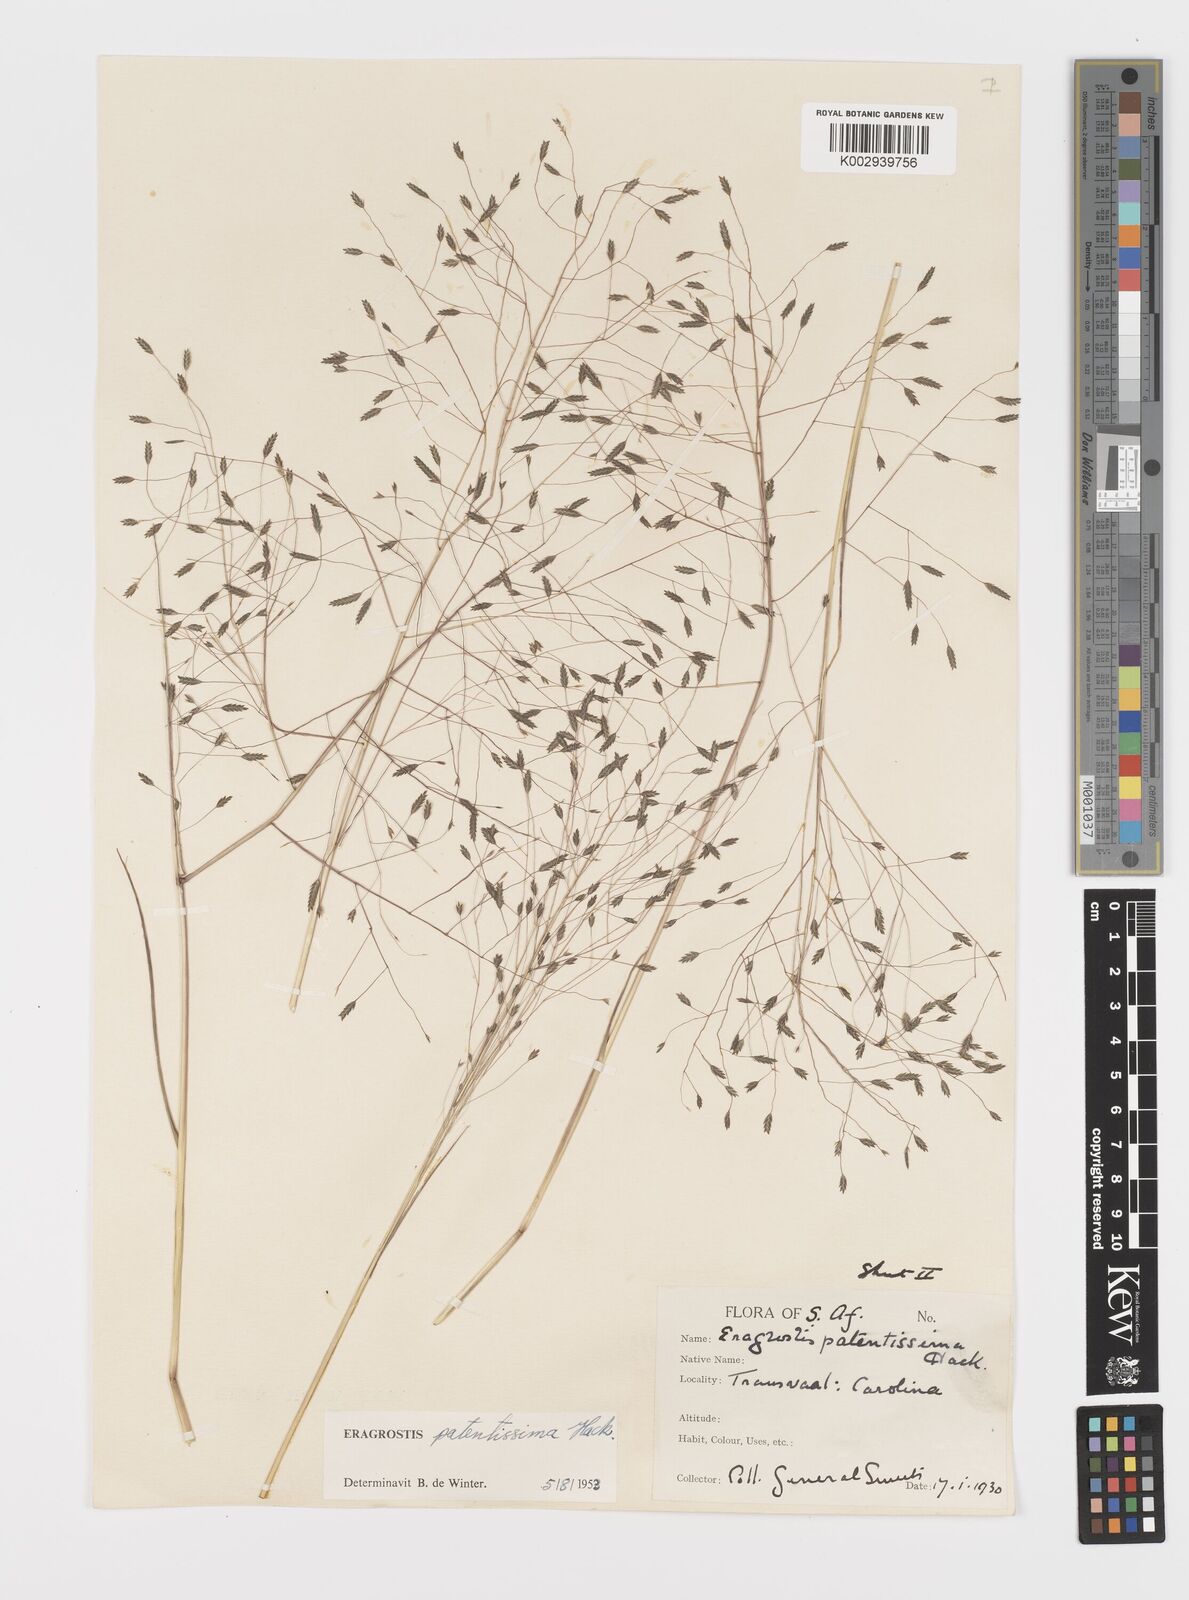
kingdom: Plantae
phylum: Tracheophyta
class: Liliopsida
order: Poales
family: Poaceae
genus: Eragrostis
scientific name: Eragrostis patentissima
